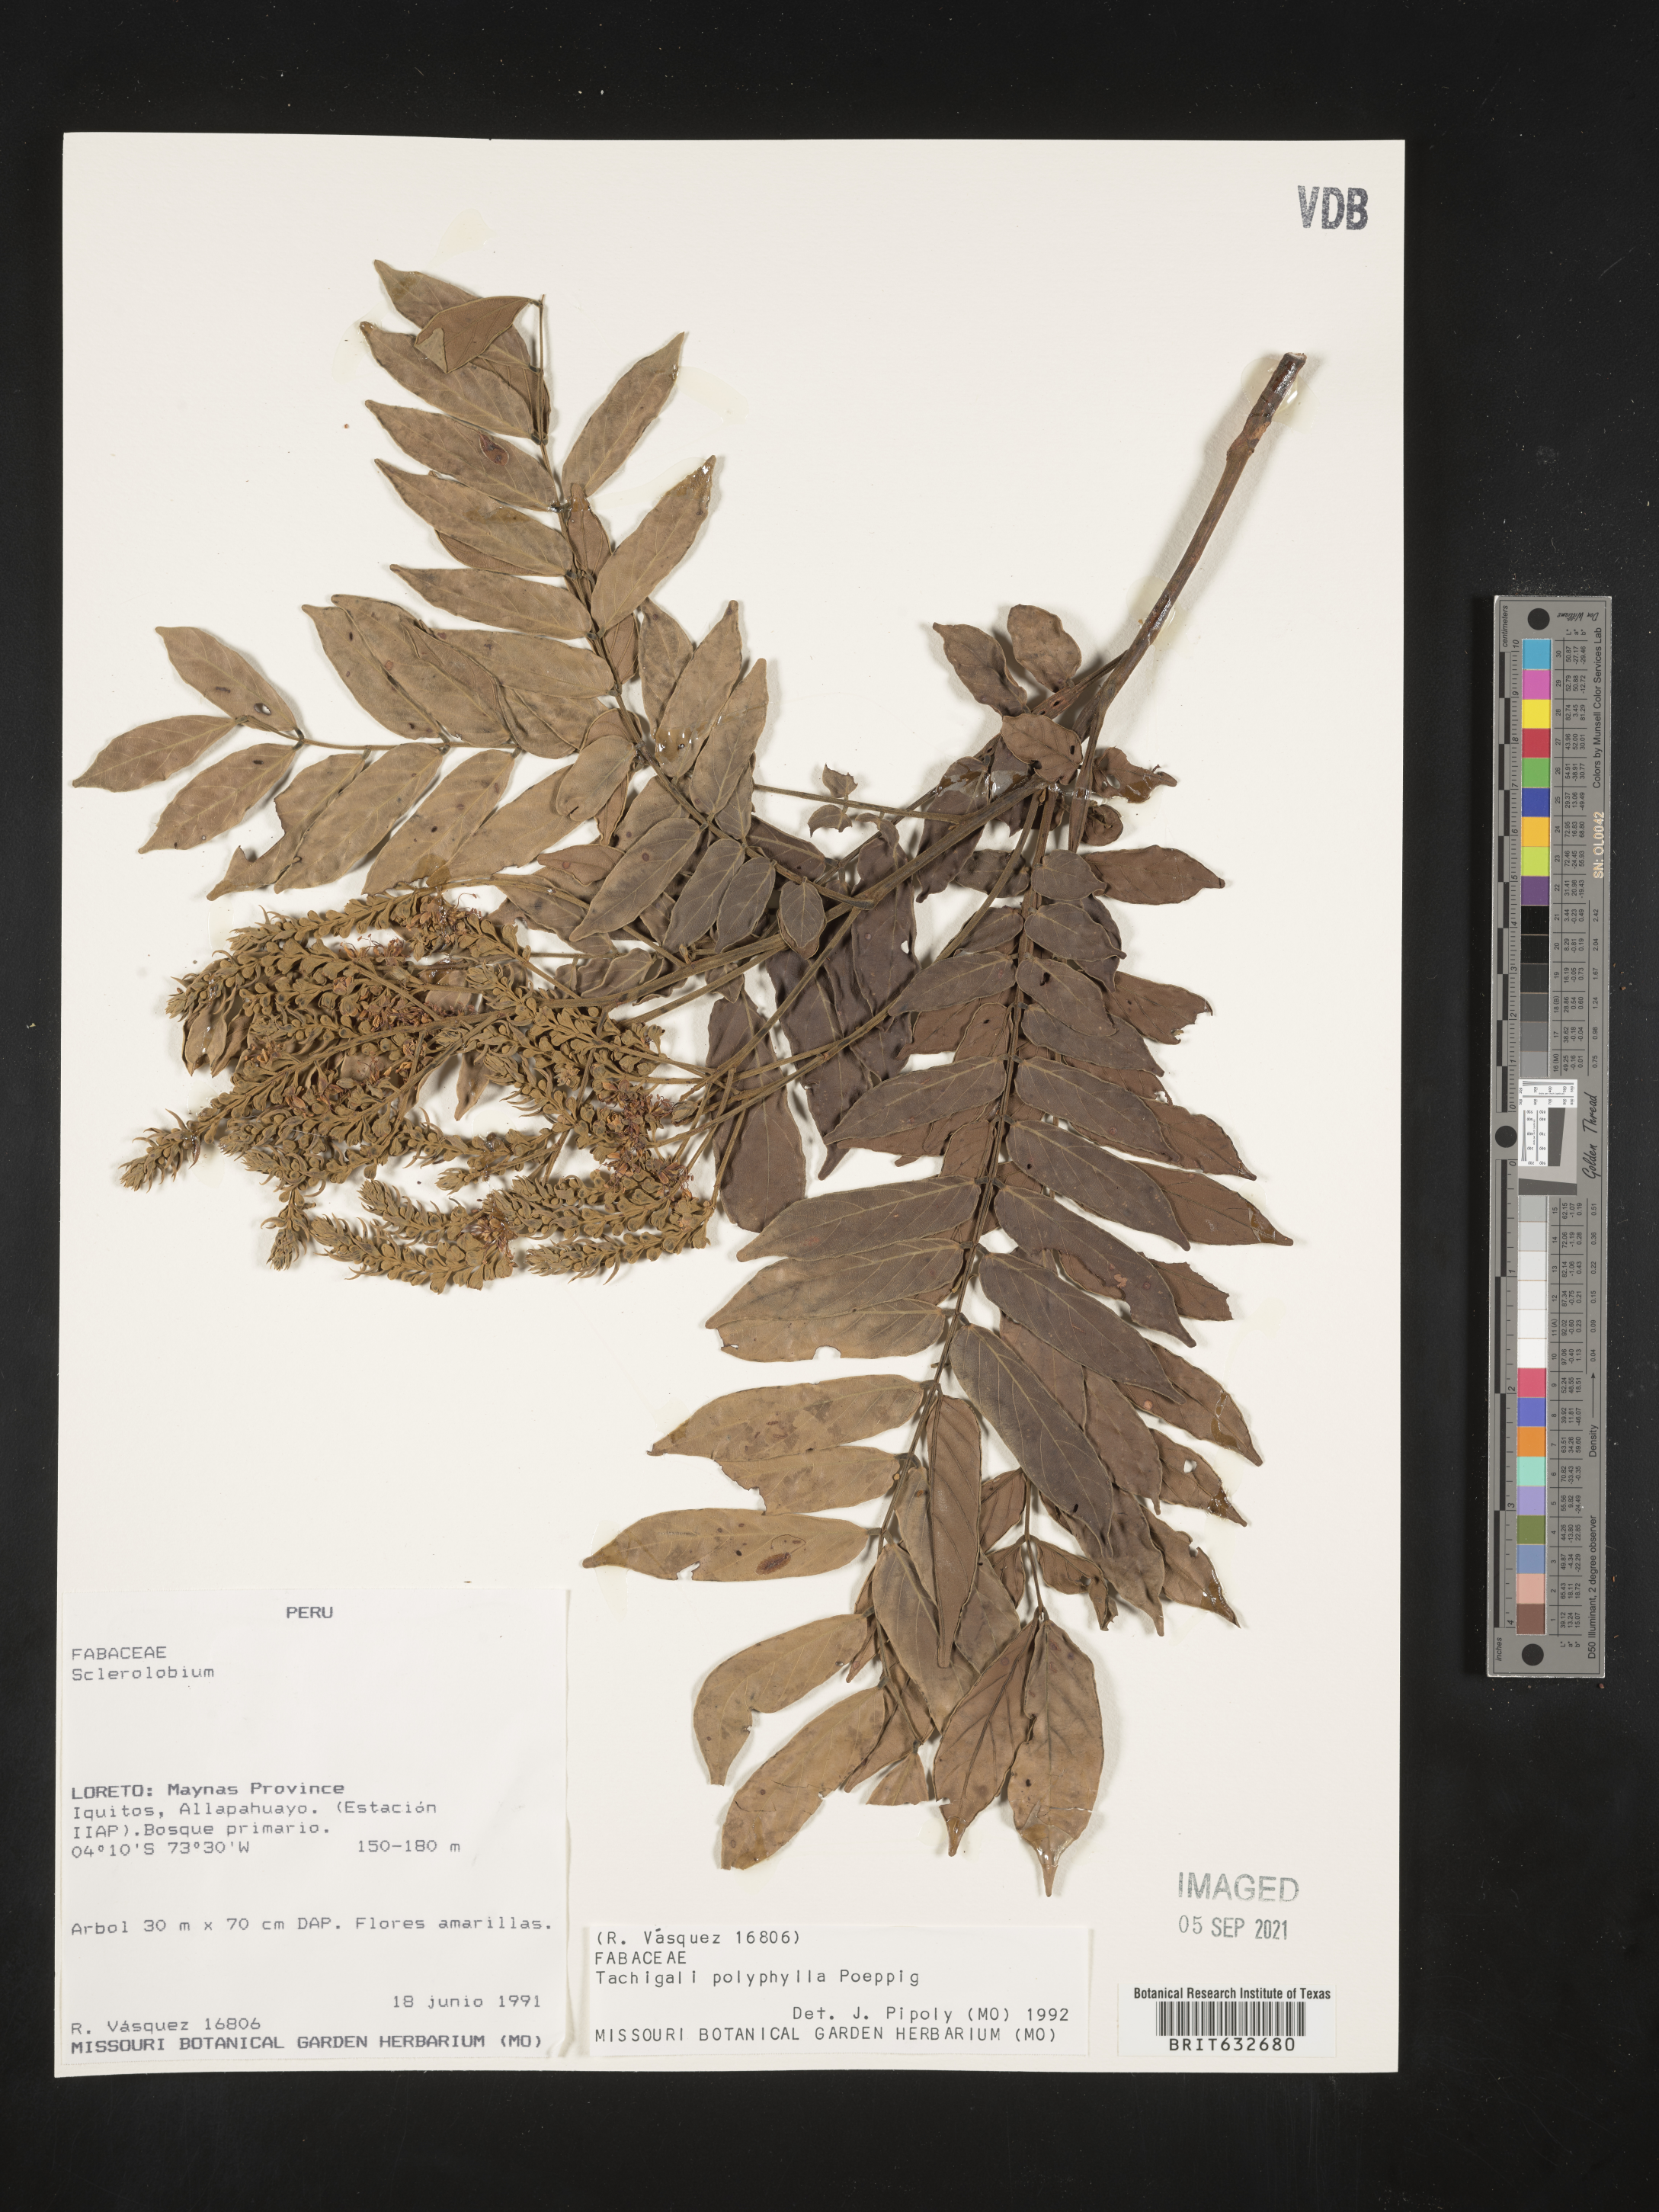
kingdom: Plantae
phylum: Tracheophyta
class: Magnoliopsida
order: Fabales
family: Fabaceae
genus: Tachigali
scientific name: Tachigali
